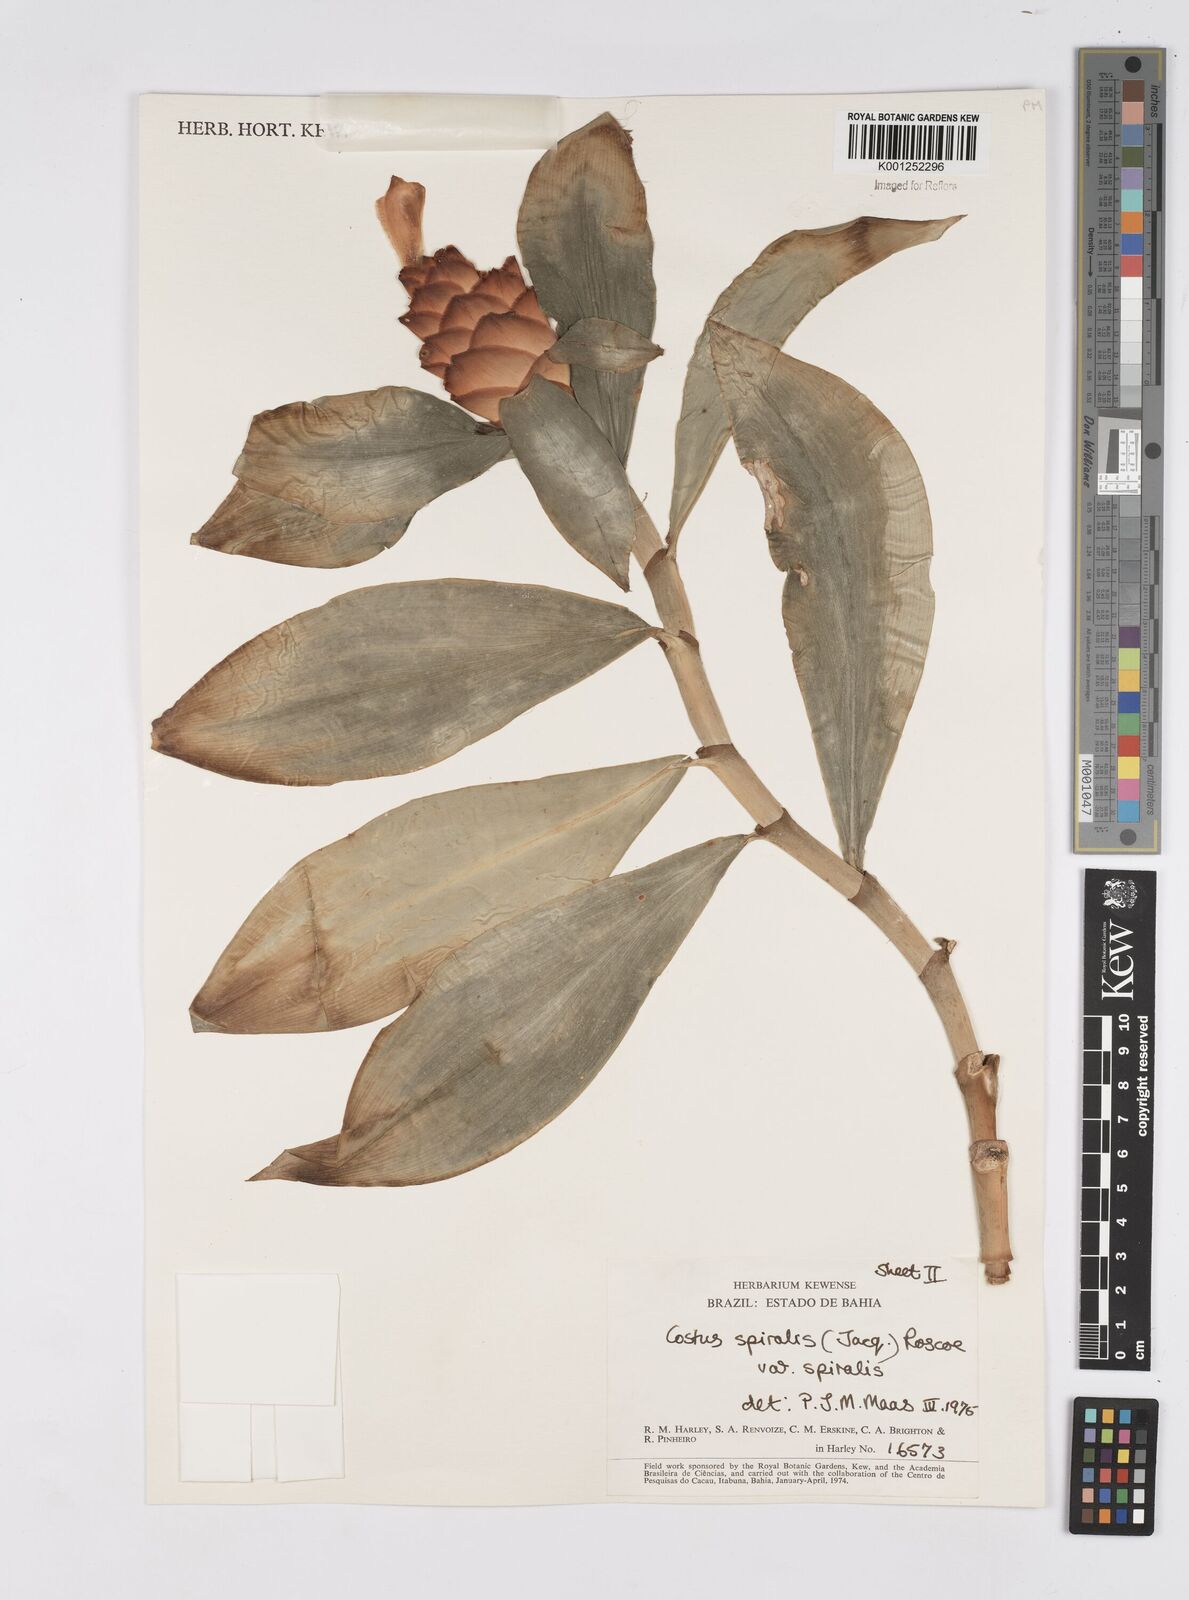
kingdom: Plantae
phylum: Tracheophyta
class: Liliopsida
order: Zingiberales
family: Costaceae
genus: Costus
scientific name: Costus spiralis
